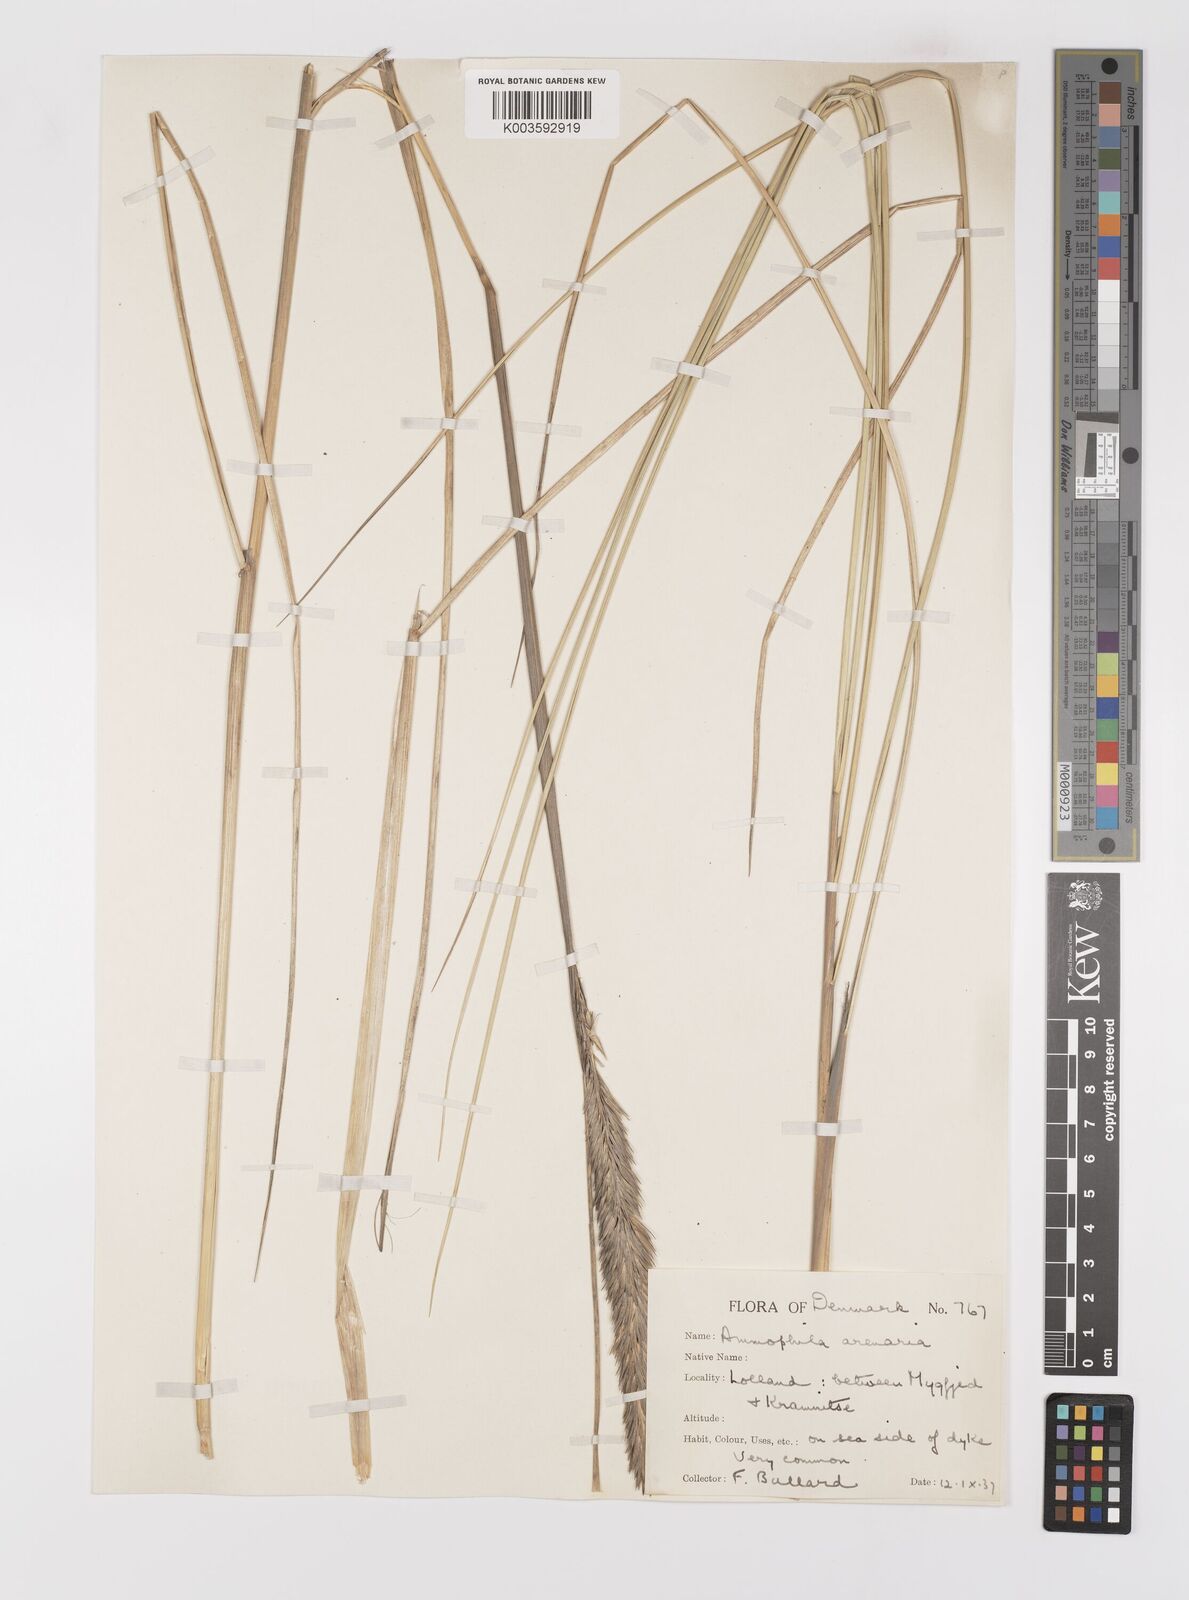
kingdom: Plantae
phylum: Tracheophyta
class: Liliopsida
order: Poales
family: Poaceae
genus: Calamagrostis
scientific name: Calamagrostis arenaria
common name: European beachgrass
